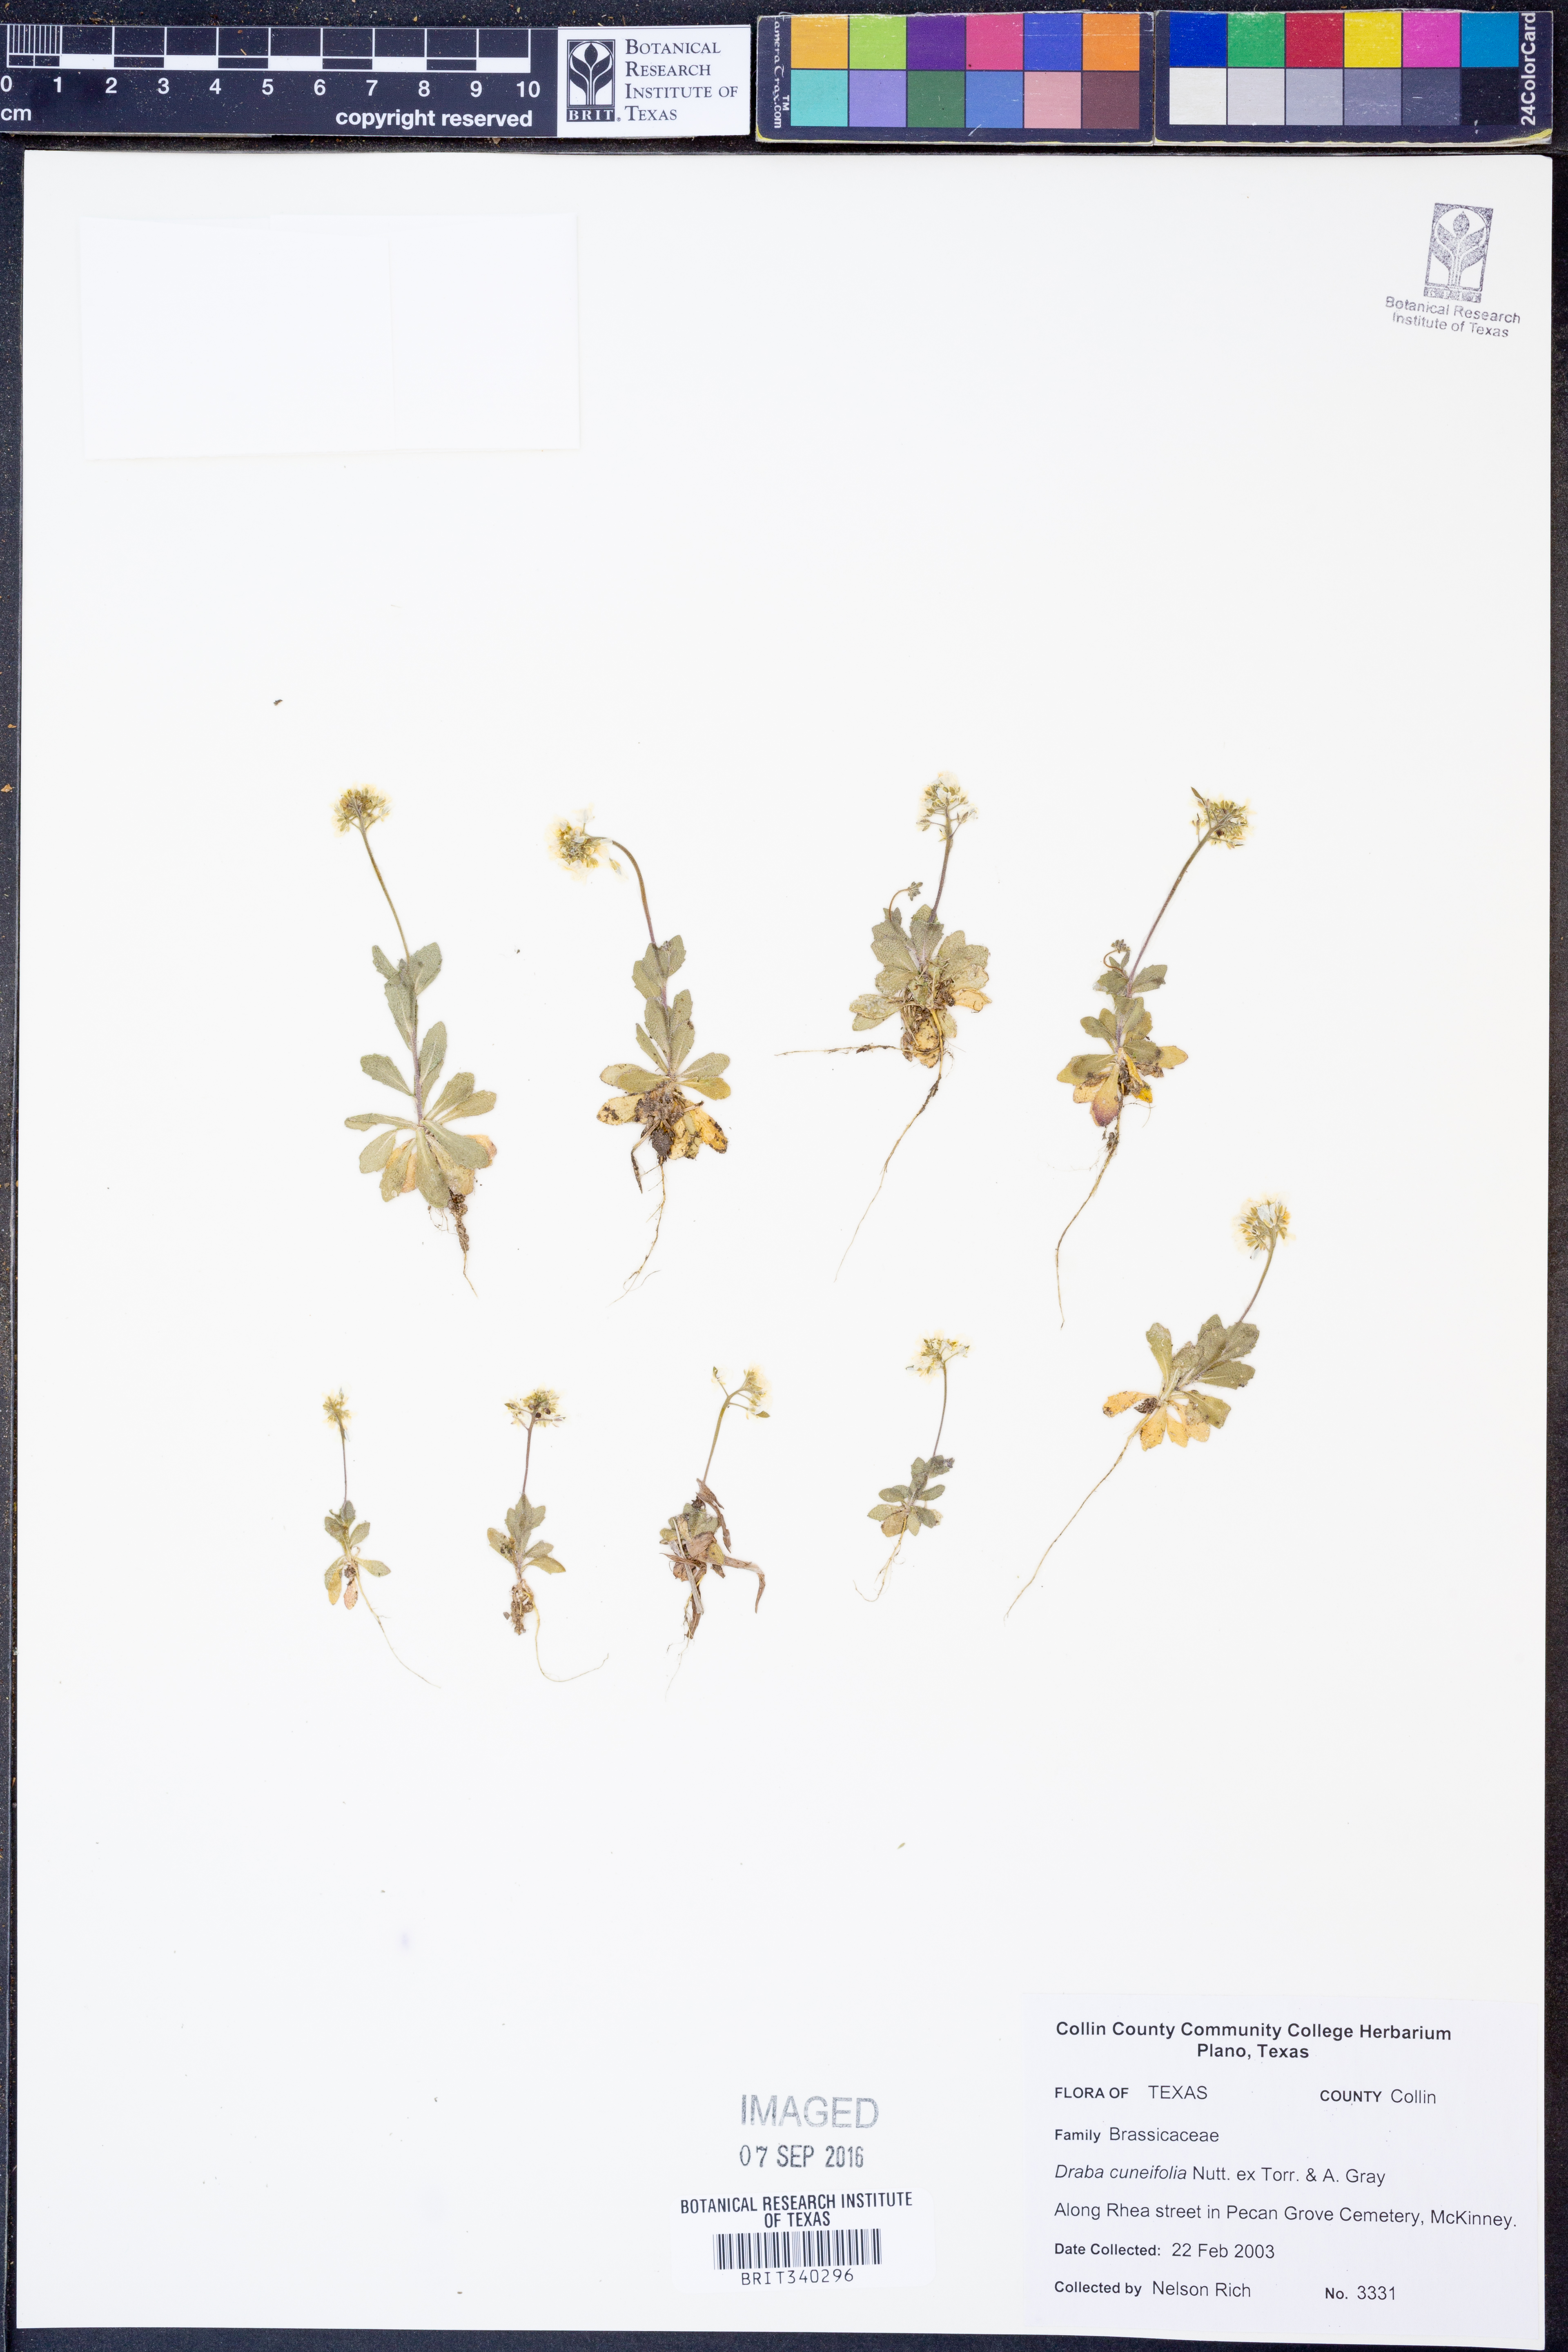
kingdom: Plantae
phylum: Tracheophyta
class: Magnoliopsida
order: Brassicales
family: Brassicaceae
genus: Tomostima
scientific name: Tomostima cuneifolia
